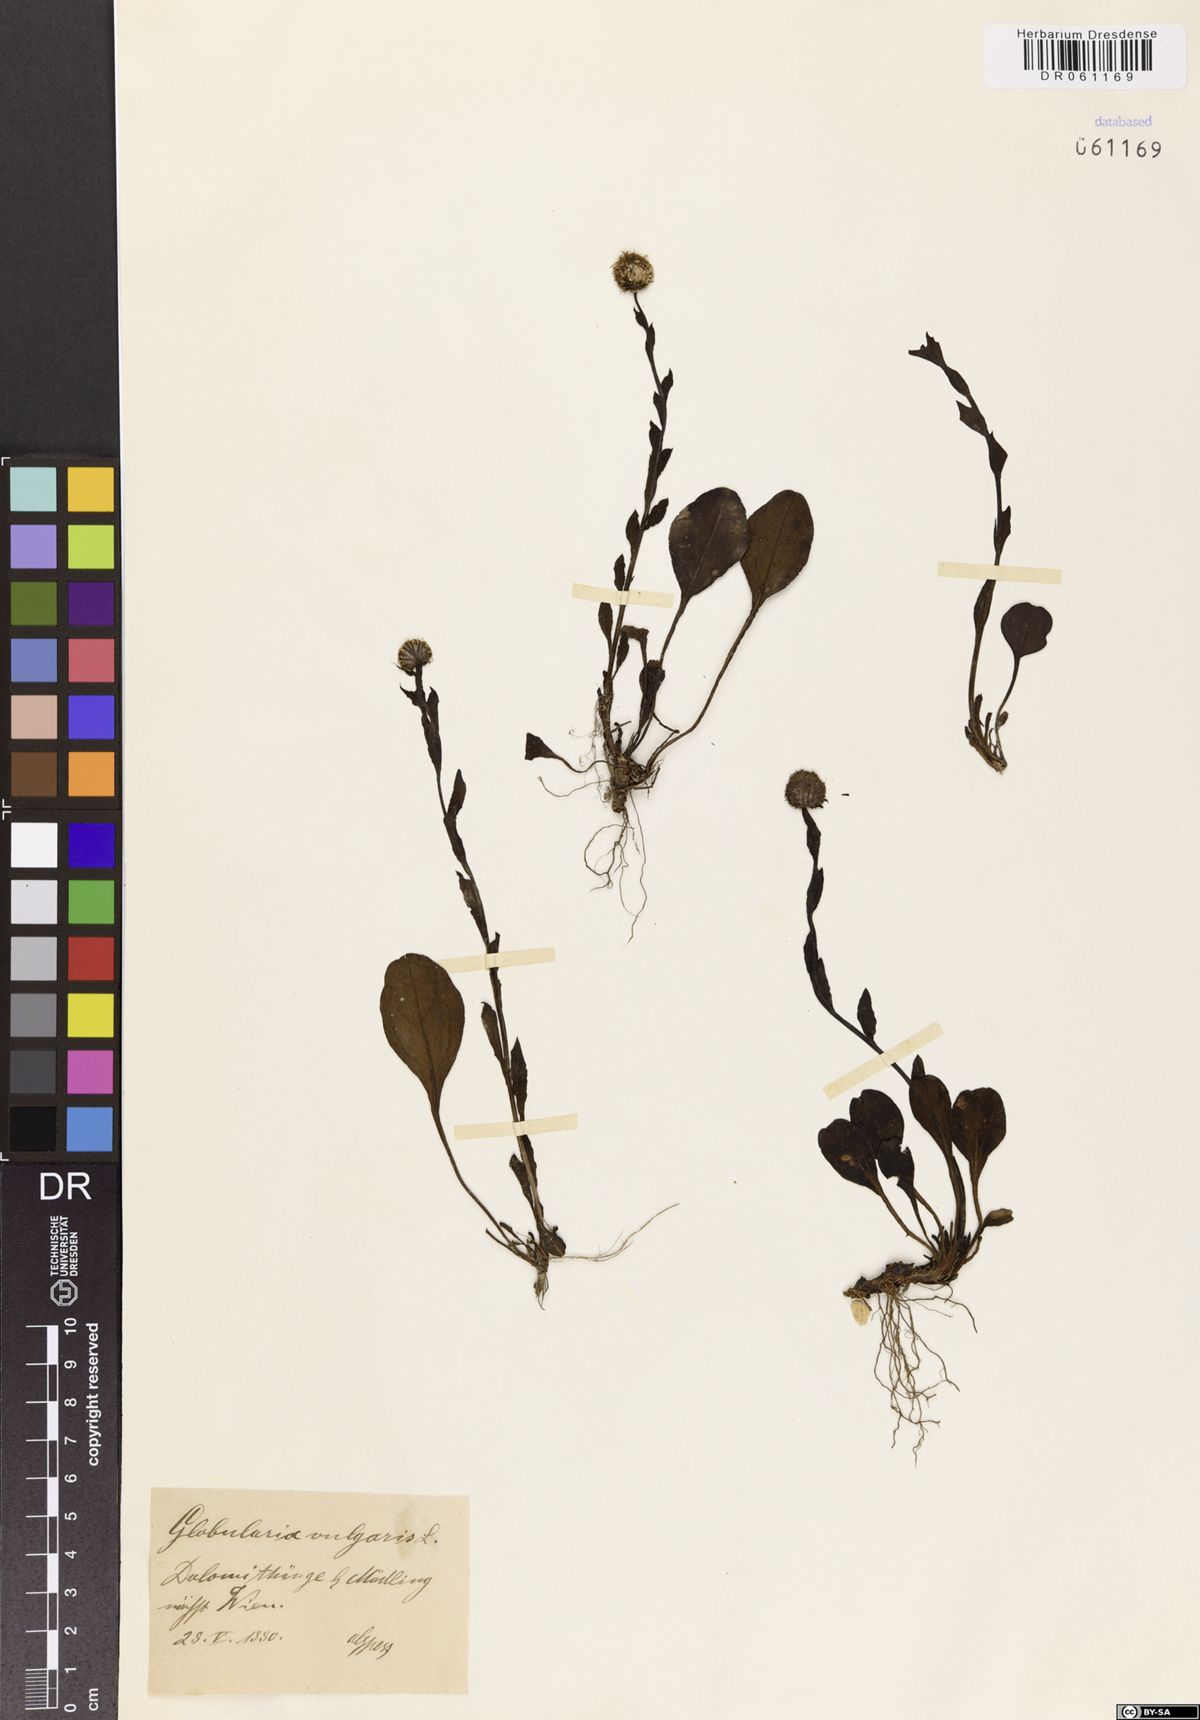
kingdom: Plantae
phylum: Tracheophyta
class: Magnoliopsida
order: Lamiales
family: Plantaginaceae
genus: Globularia
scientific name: Globularia vulgaris
